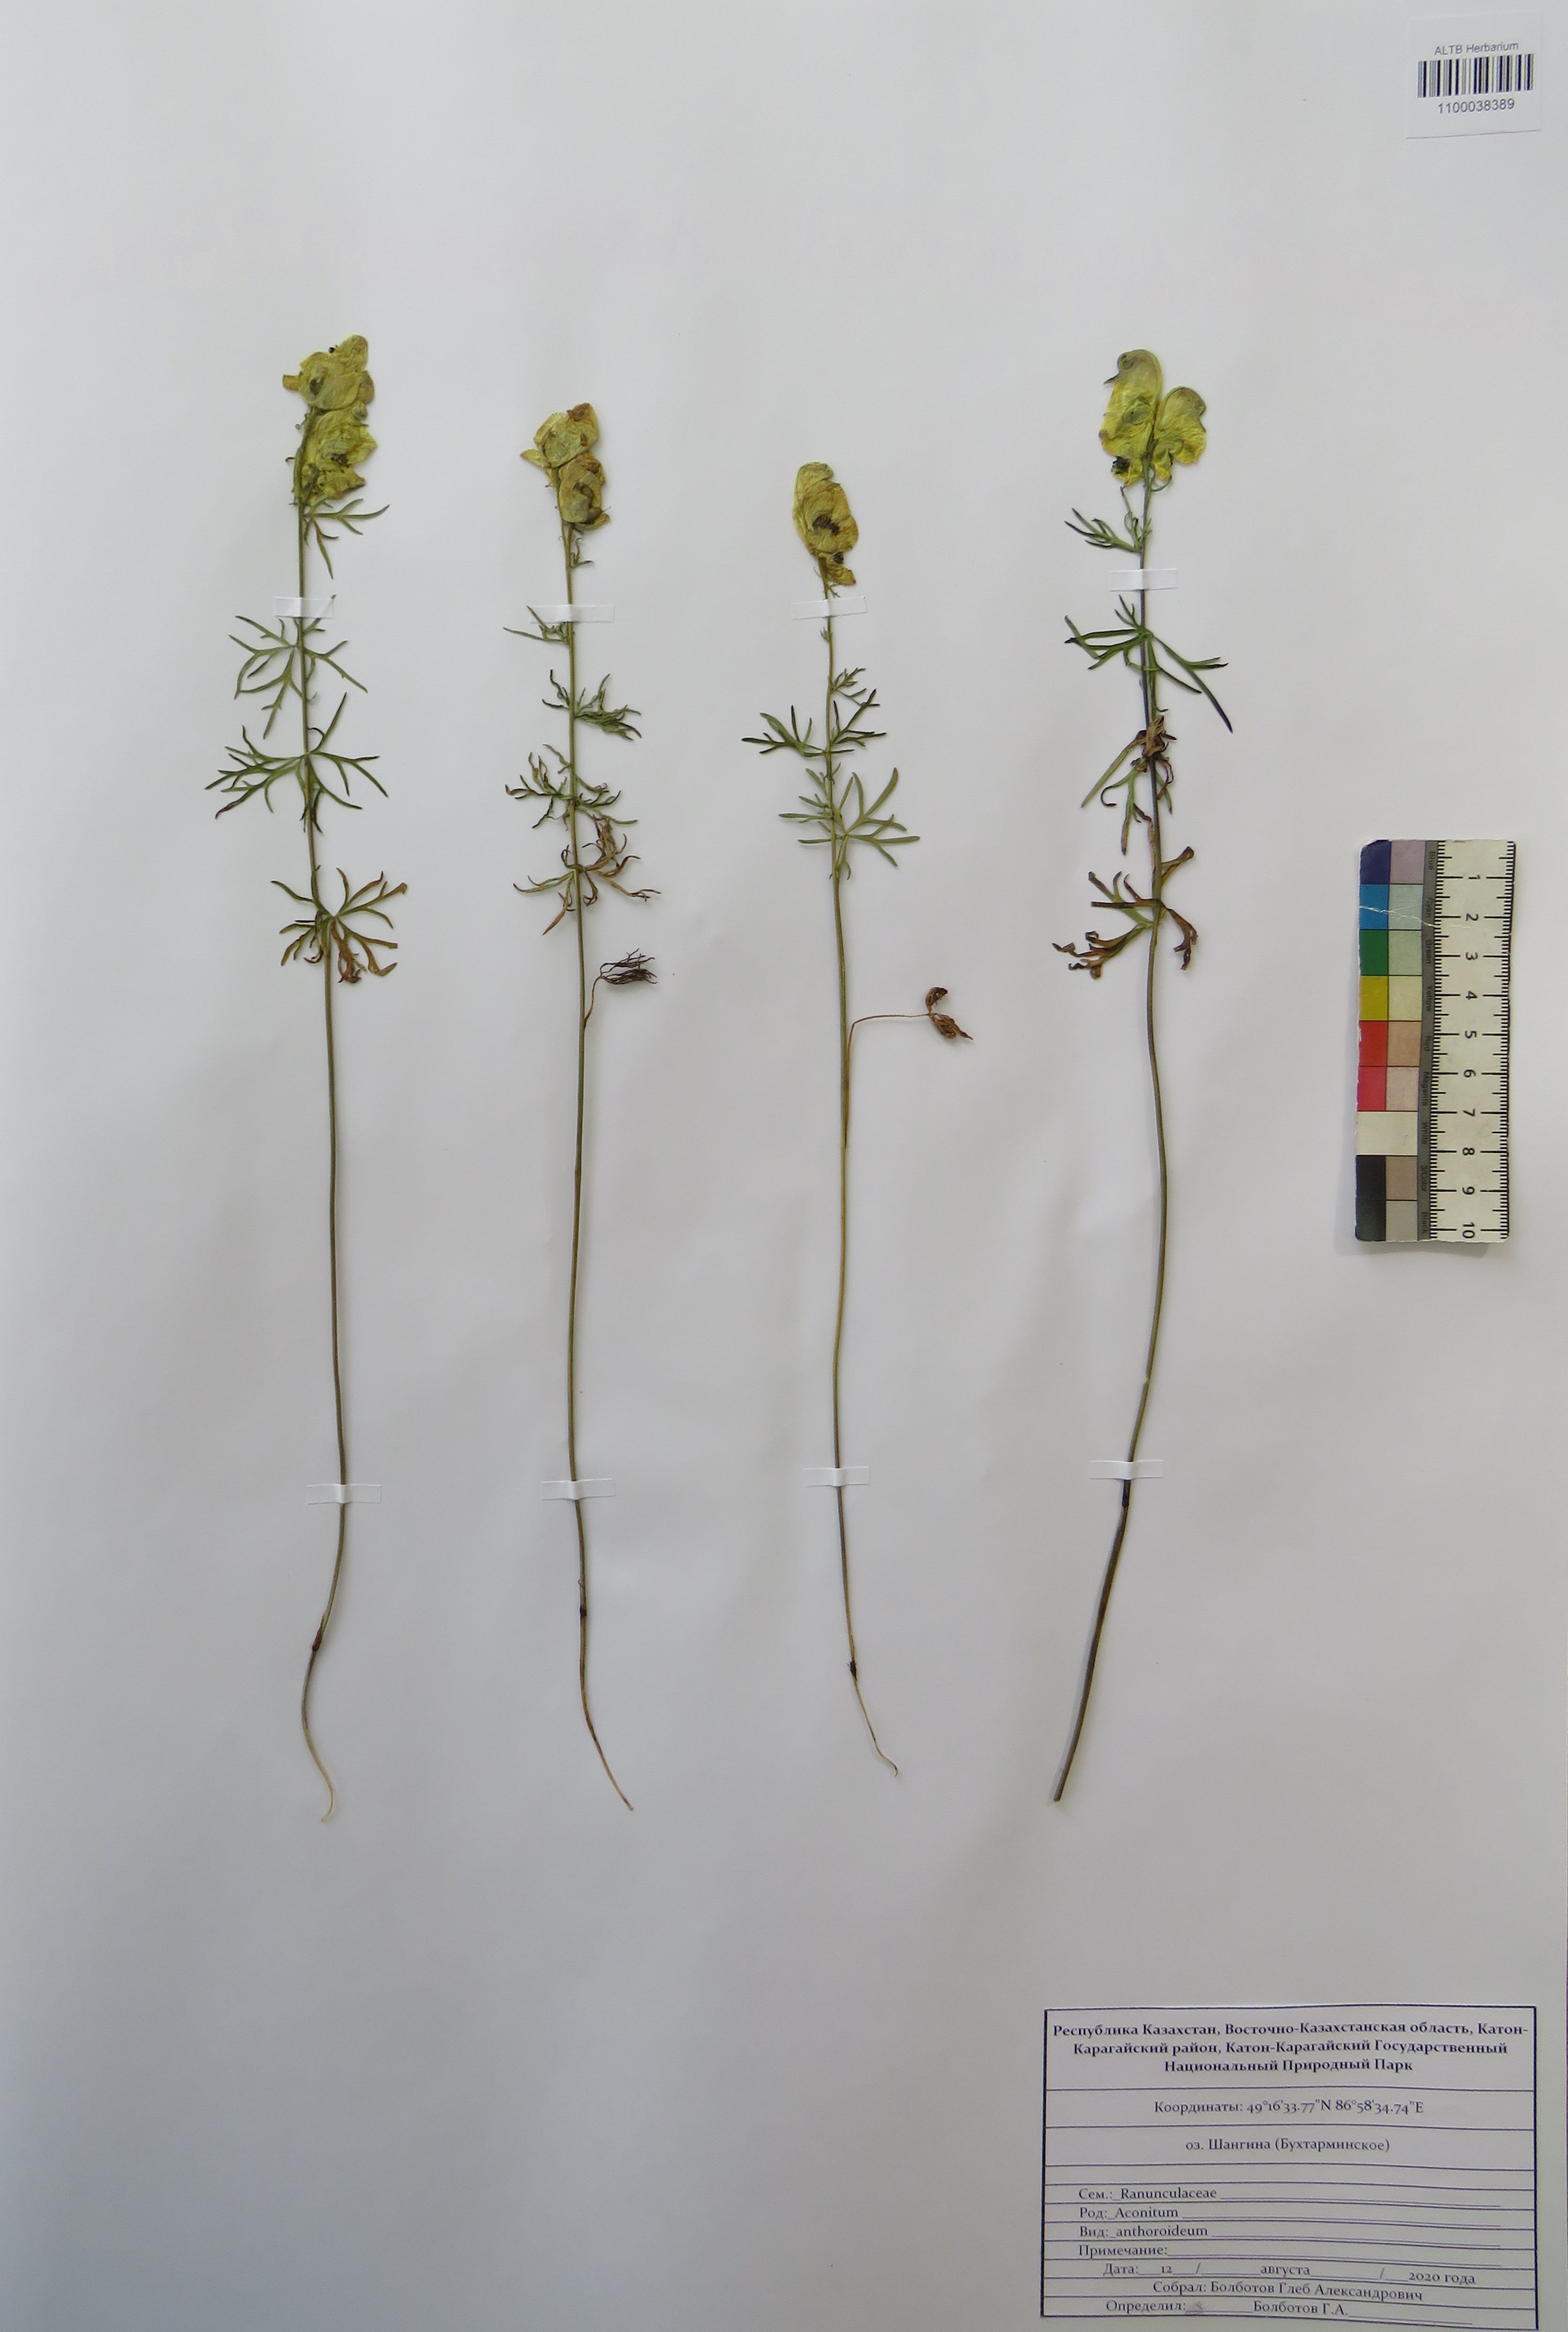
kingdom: Plantae
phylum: Tracheophyta
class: Magnoliopsida
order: Ranunculales
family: Ranunculaceae
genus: Aconitum
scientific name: Aconitum anthoroideum
